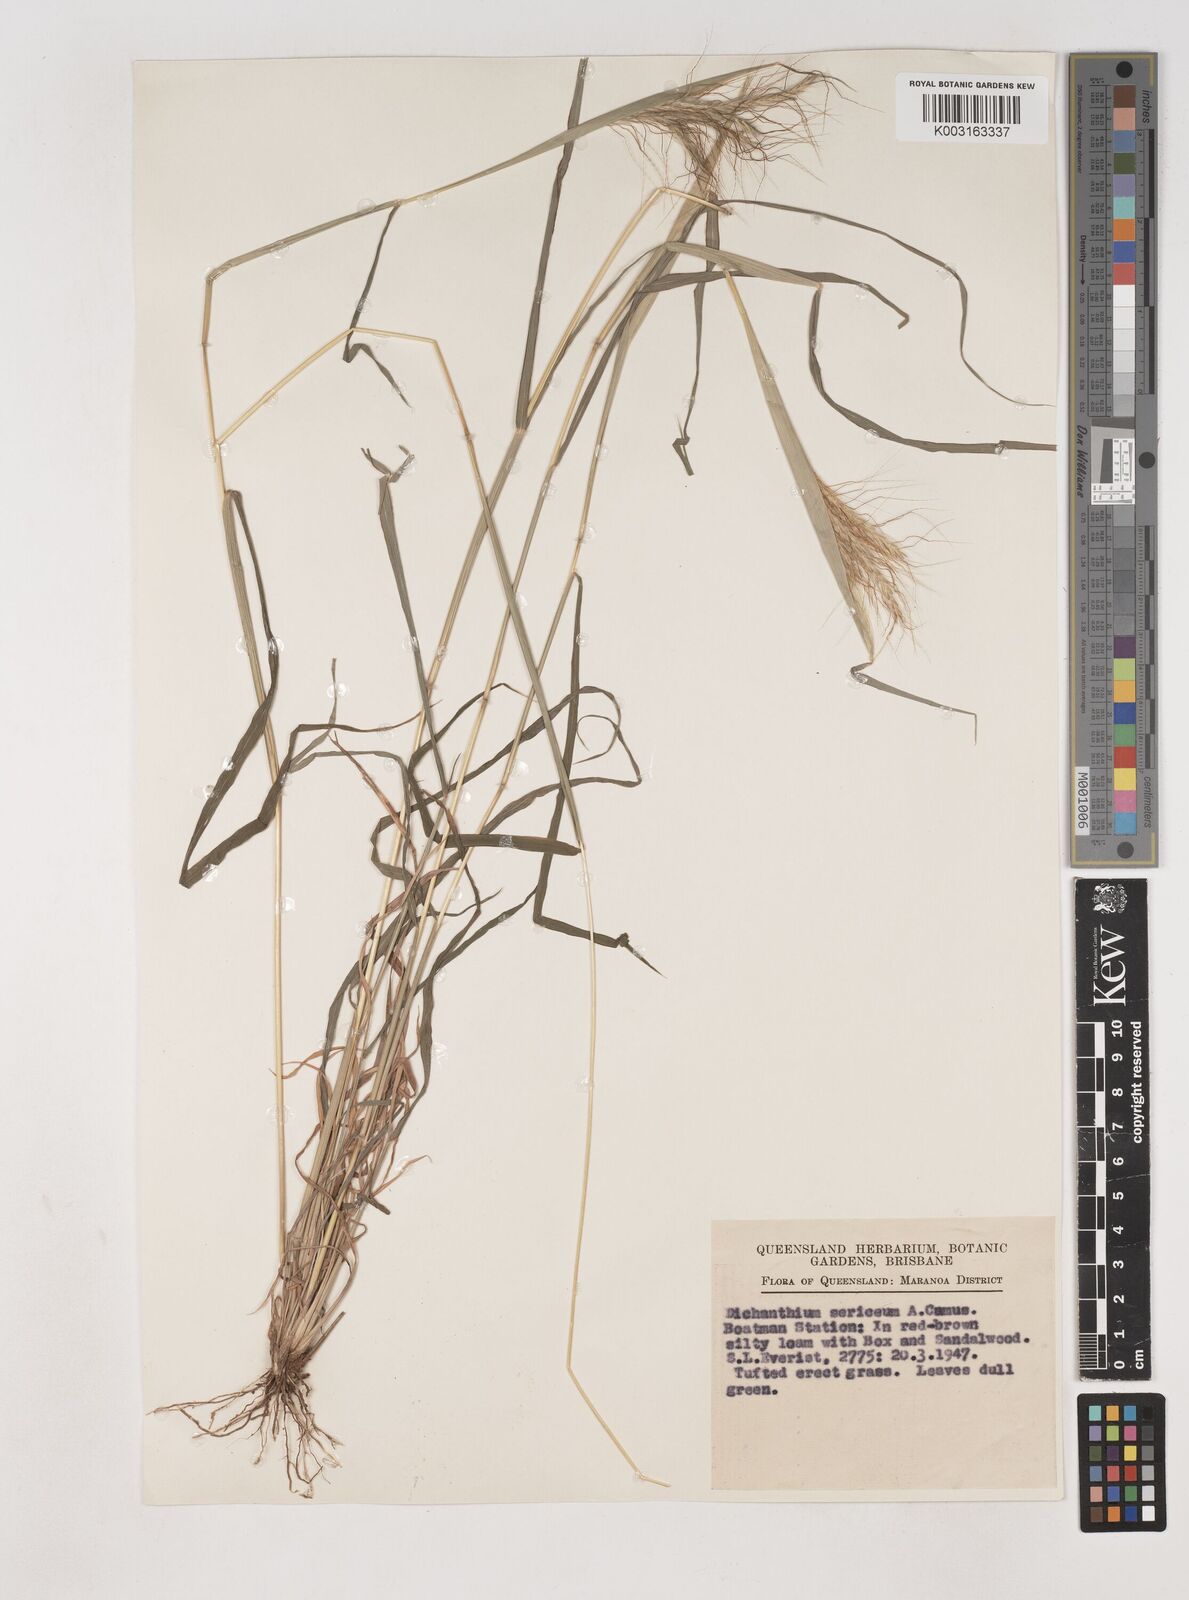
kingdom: Plantae
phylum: Tracheophyta
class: Liliopsida
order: Poales
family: Poaceae
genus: Dichanthium
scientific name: Dichanthium sericeum
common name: Silky bluestem
